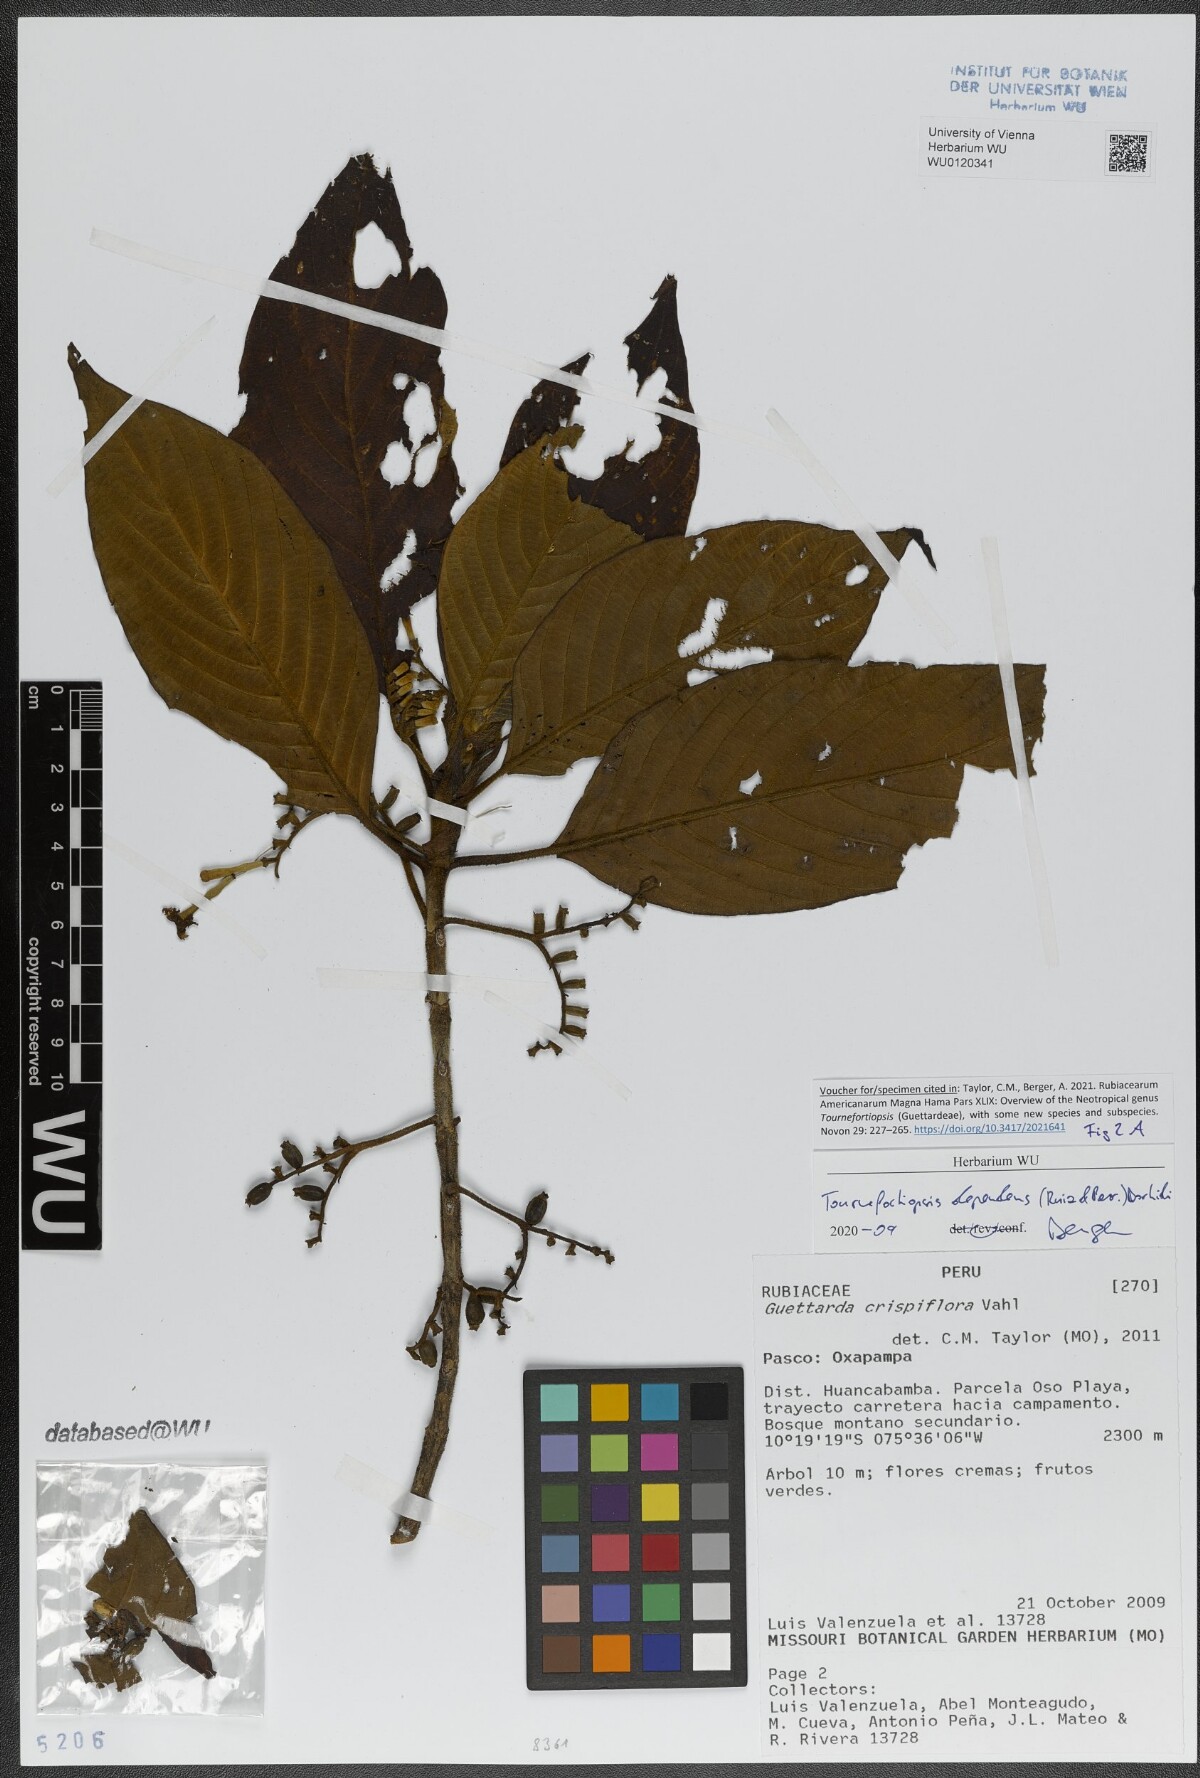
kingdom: Plantae
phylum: Tracheophyta
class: Magnoliopsida
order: Gentianales
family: Rubiaceae
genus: Tournefortiopsis
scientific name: Tournefortiopsis dependens
